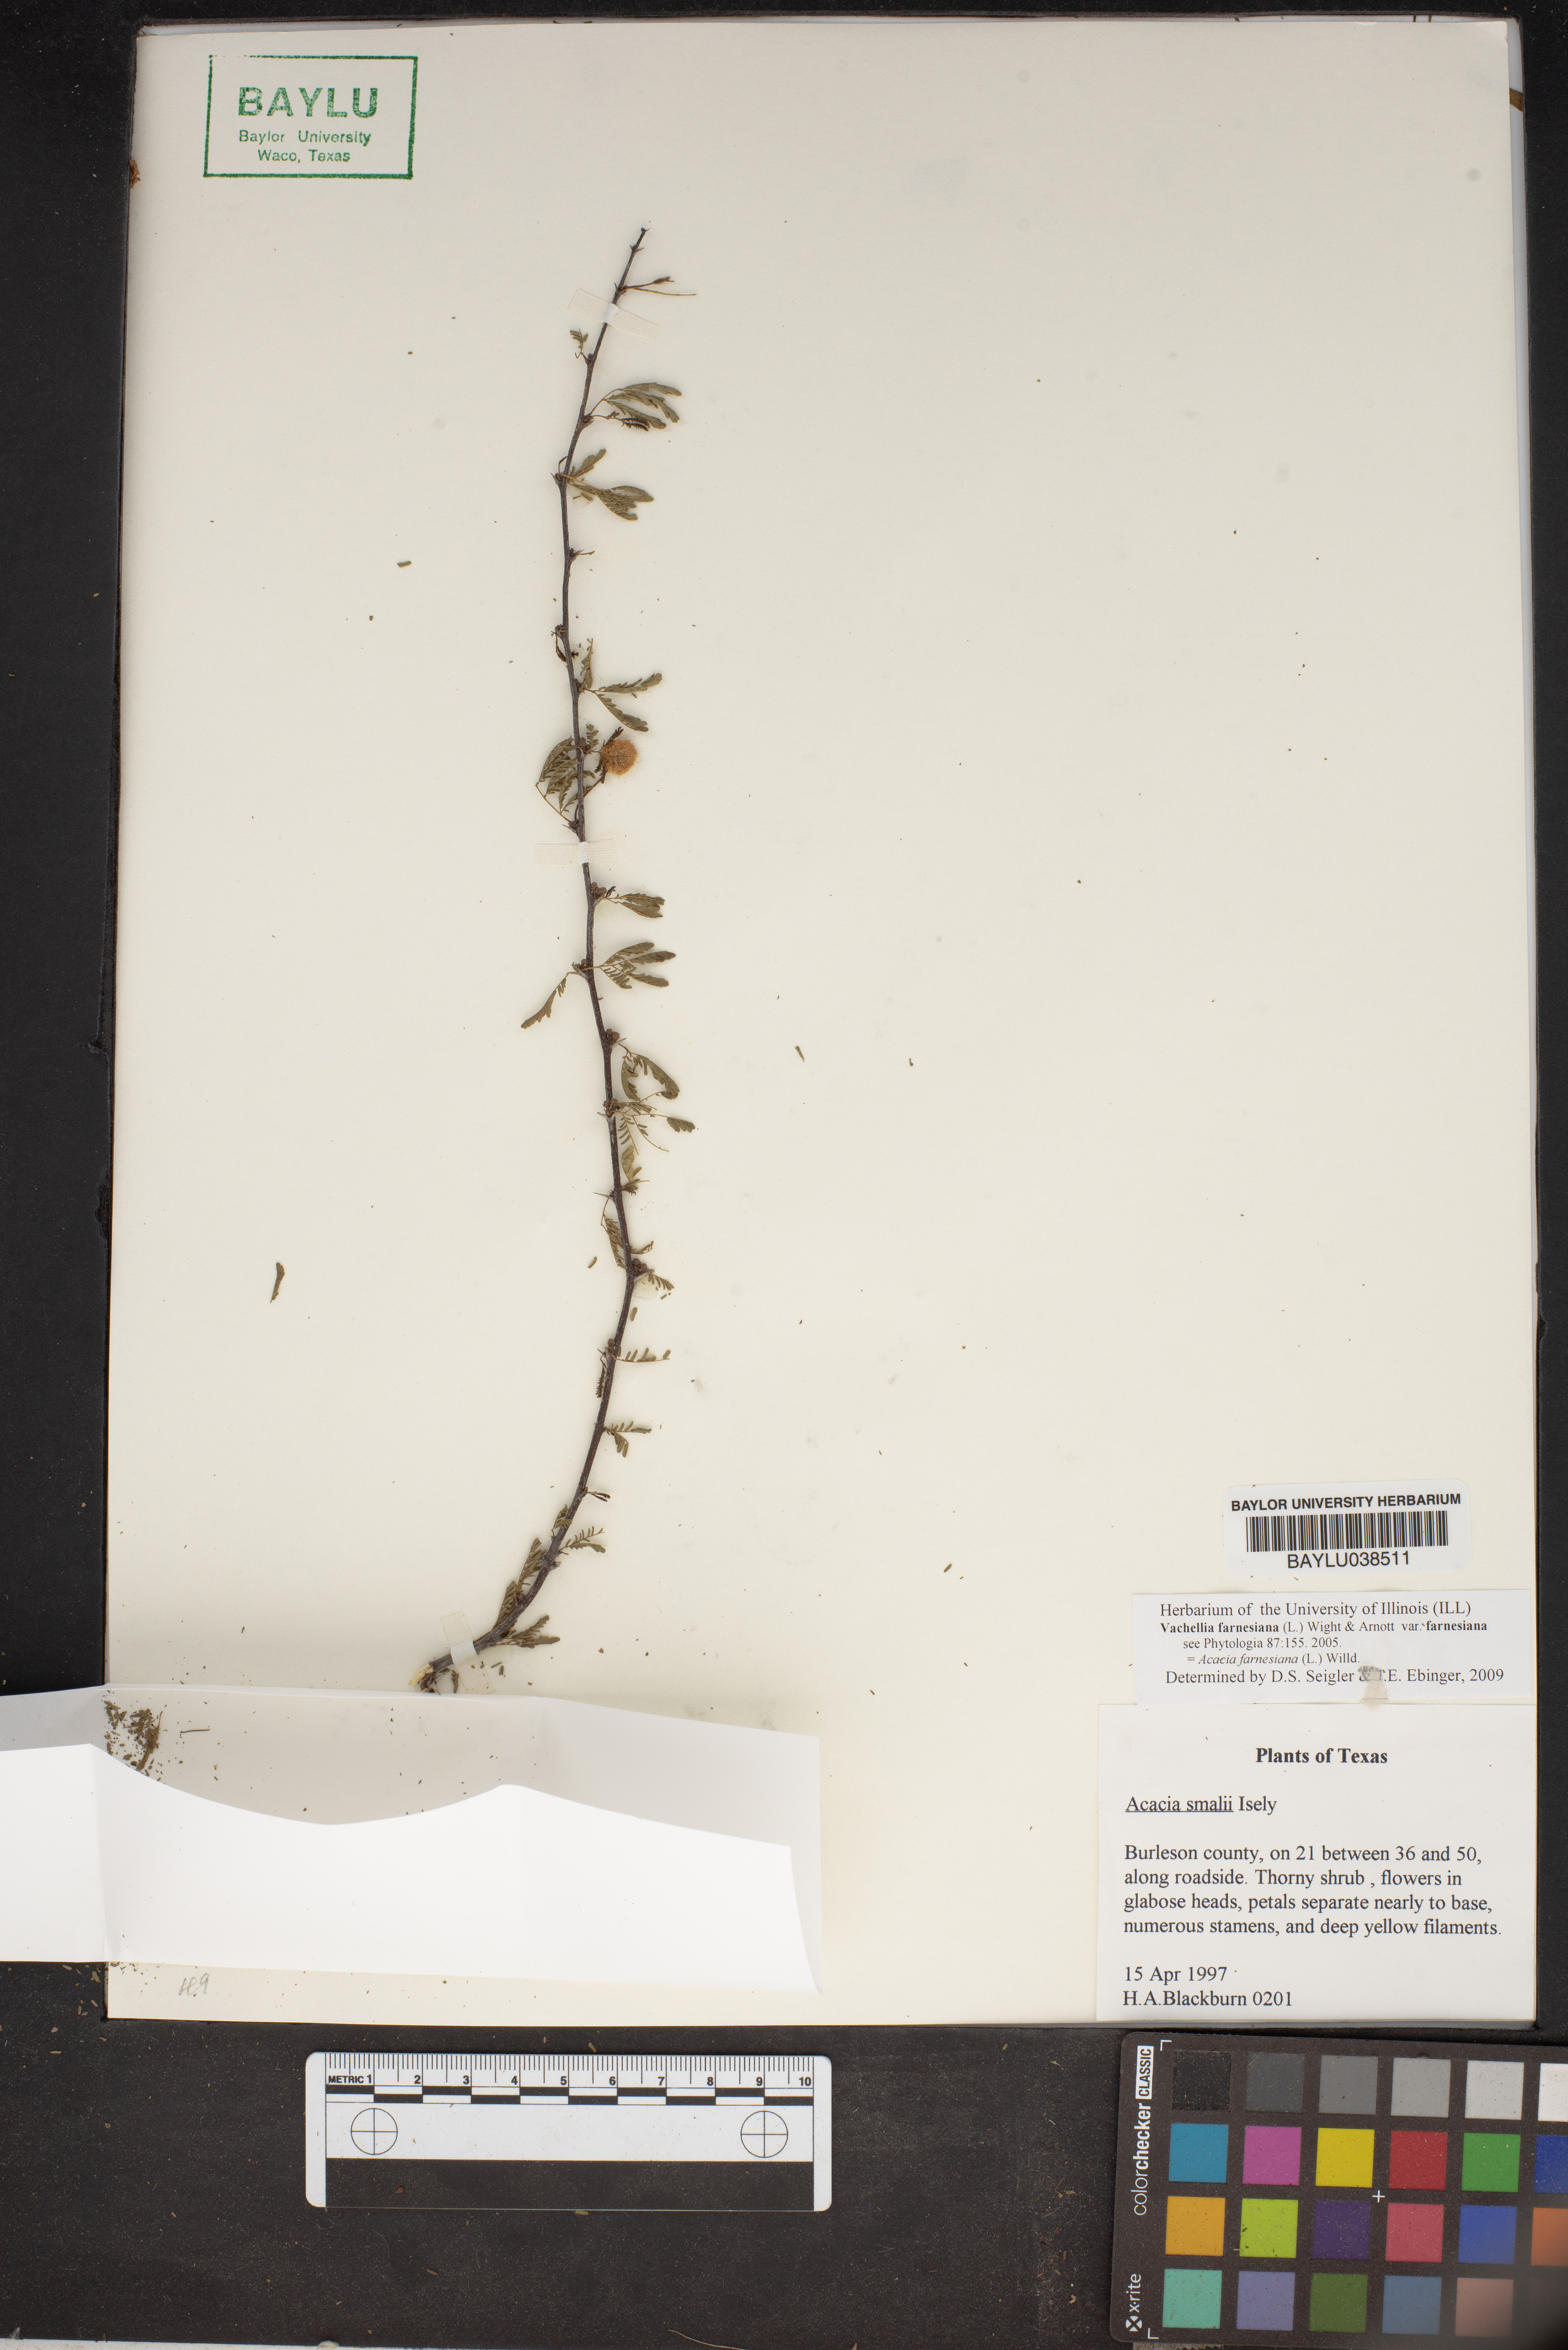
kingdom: Plantae
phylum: Tracheophyta
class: Magnoliopsida
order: Fabales
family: Fabaceae
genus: Vachellia
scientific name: Vachellia farnesiana
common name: Sweet acacia
